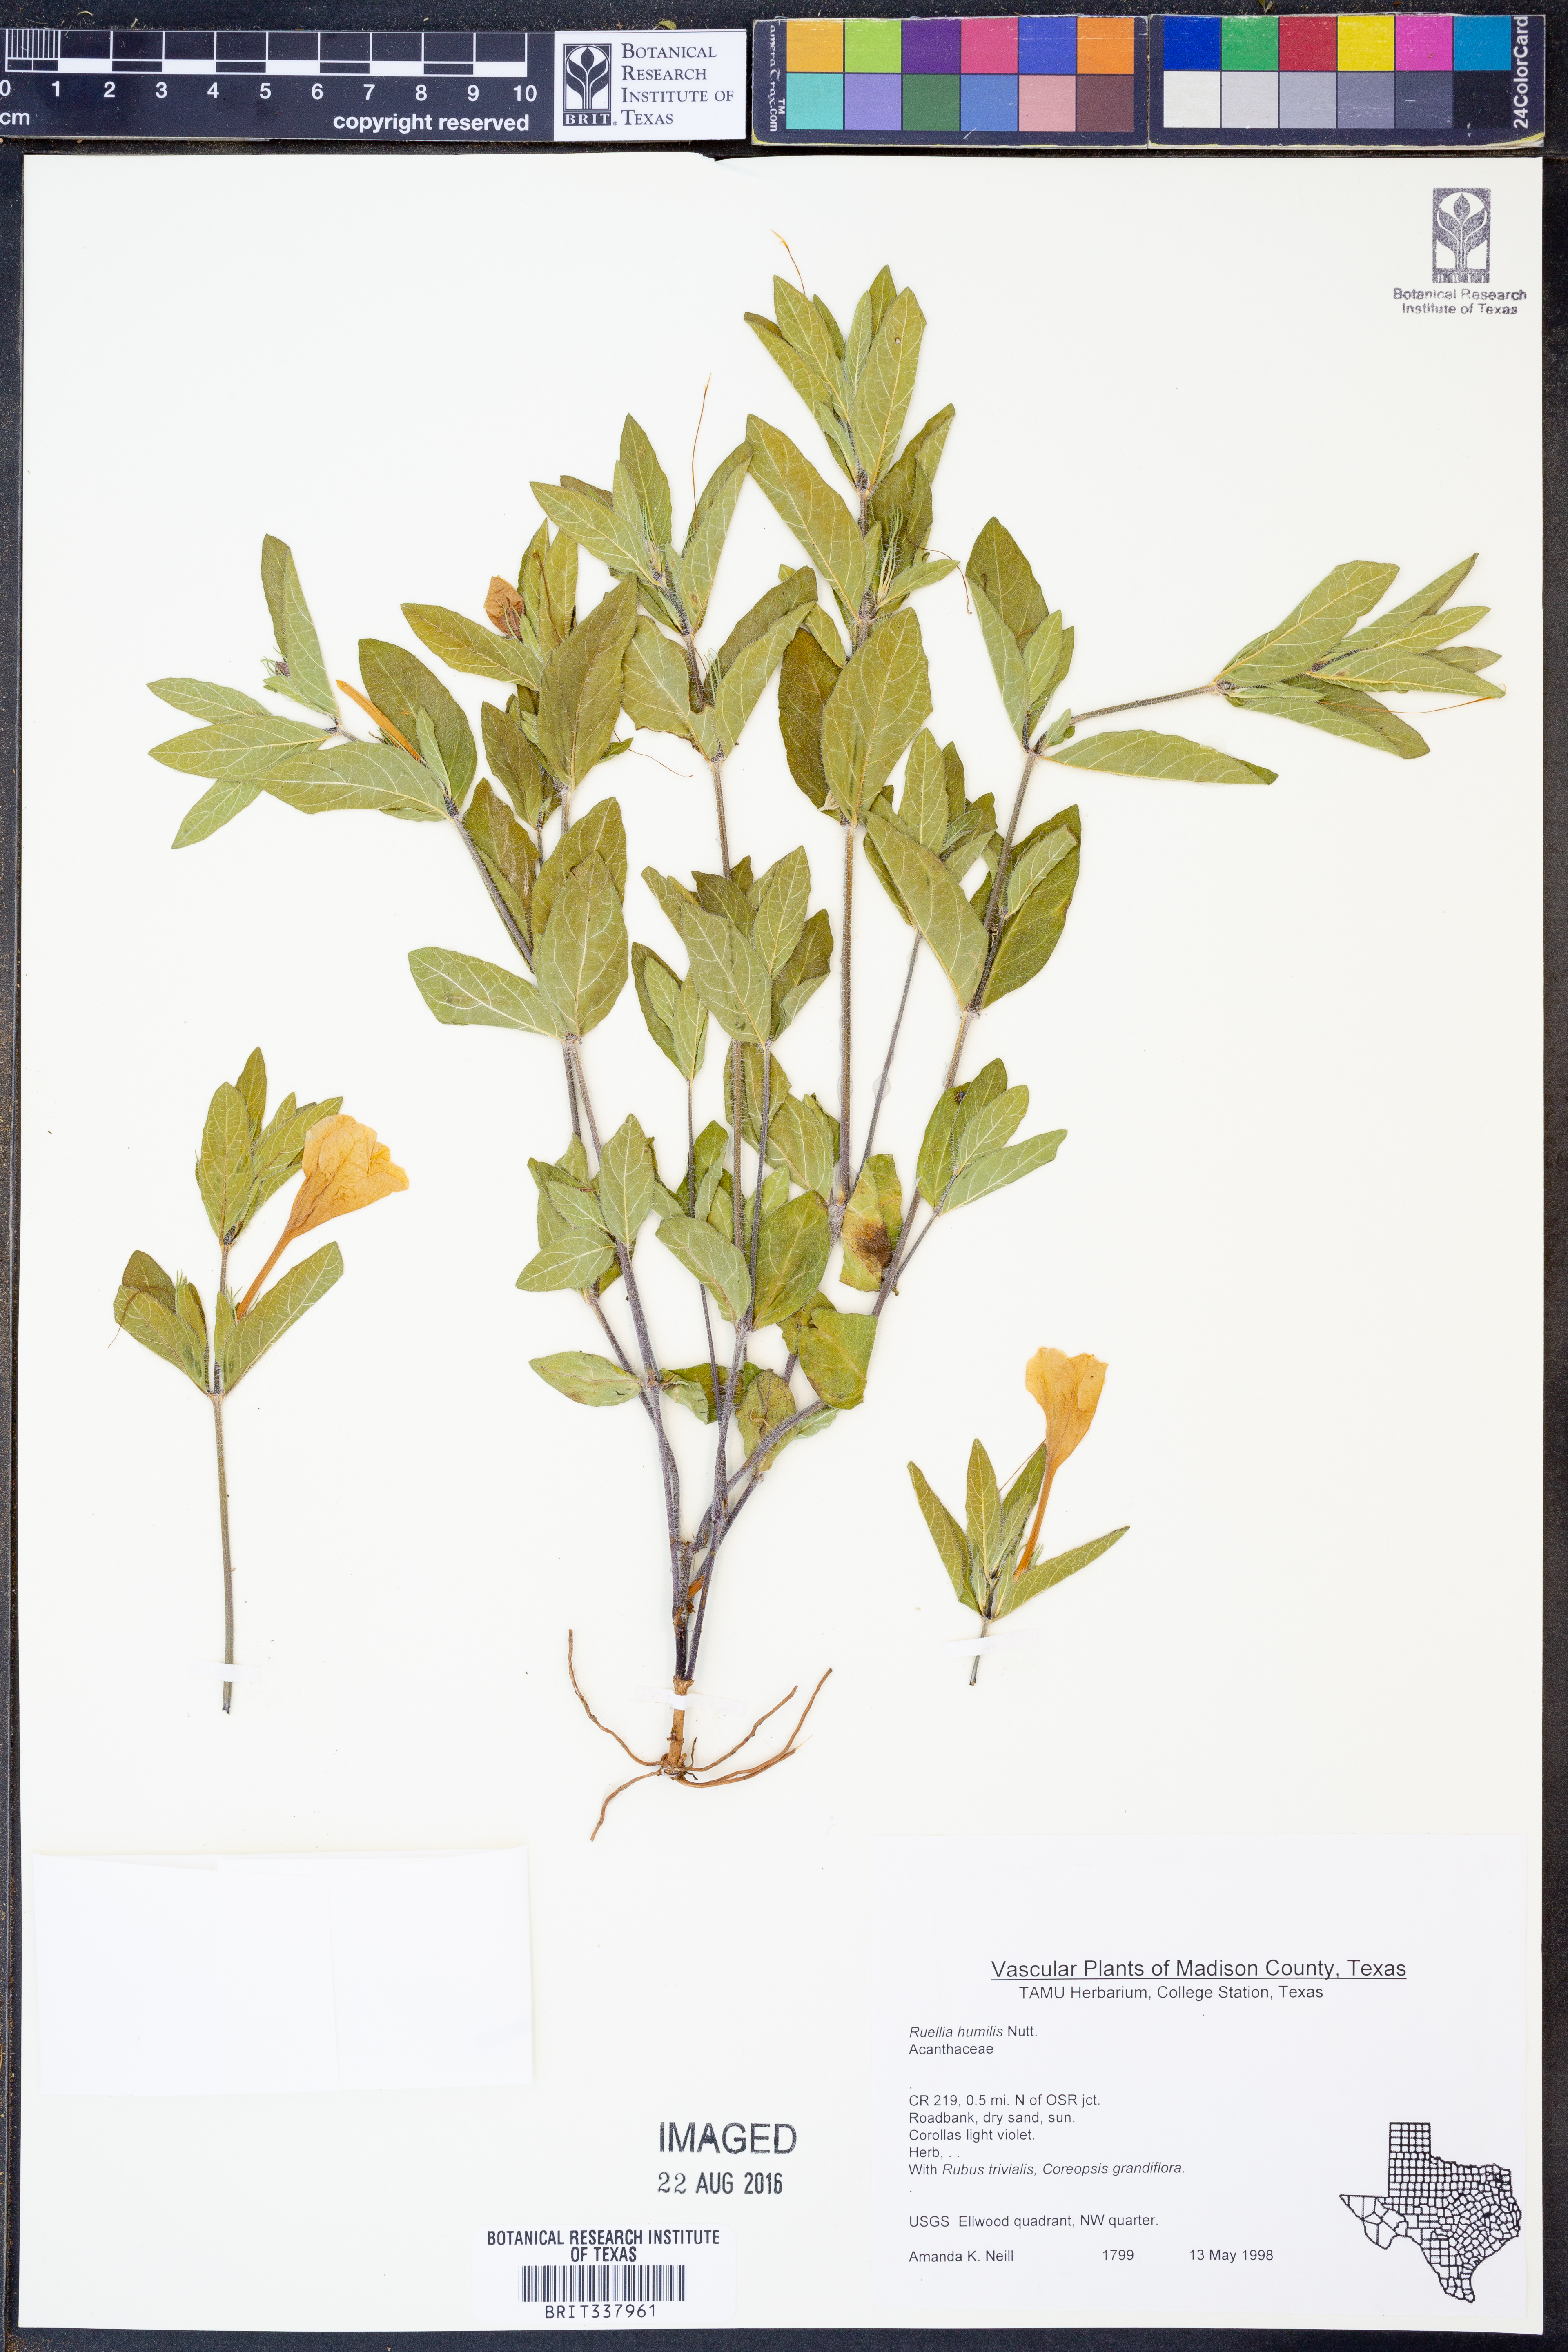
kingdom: Plantae
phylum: Tracheophyta
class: Magnoliopsida
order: Lamiales
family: Acanthaceae
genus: Ruellia
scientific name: Ruellia humilis
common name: Fringe-leaf ruellia
